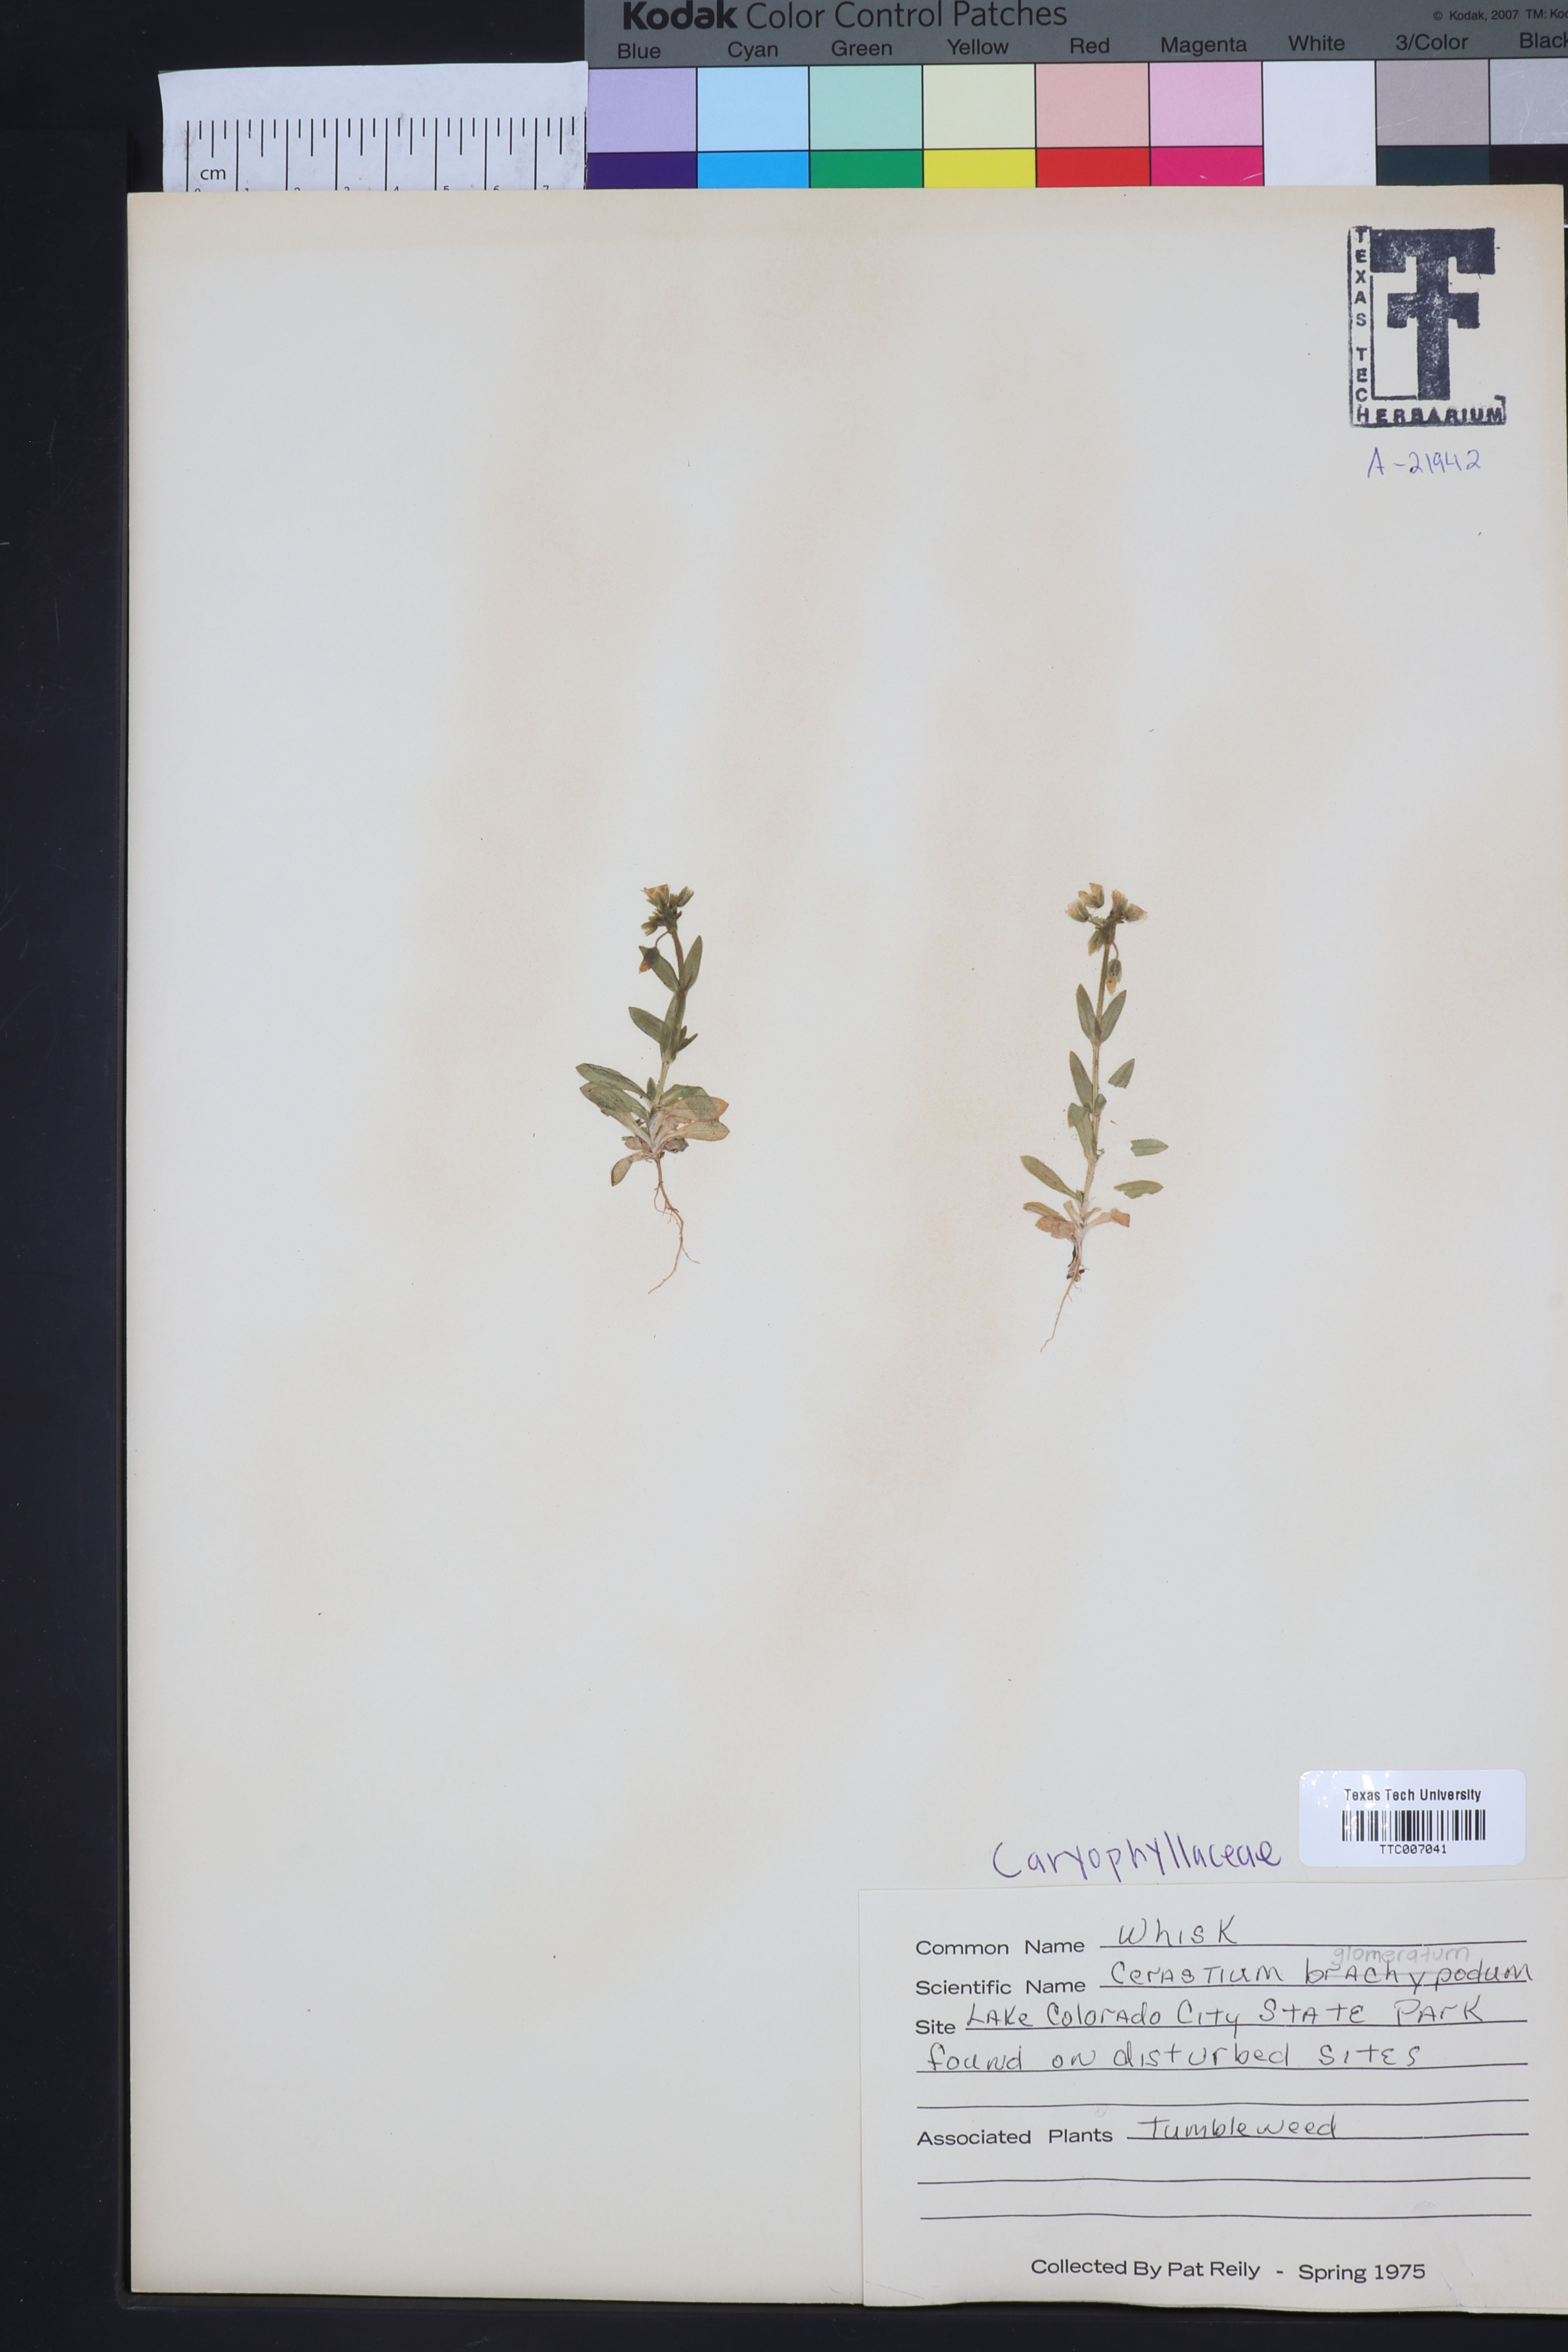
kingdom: Plantae
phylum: Tracheophyta
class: Magnoliopsida
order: Caryophyllales
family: Caryophyllaceae
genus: Cerastium
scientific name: Cerastium brachypodum
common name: Short-pedicelled nodding chickweed
